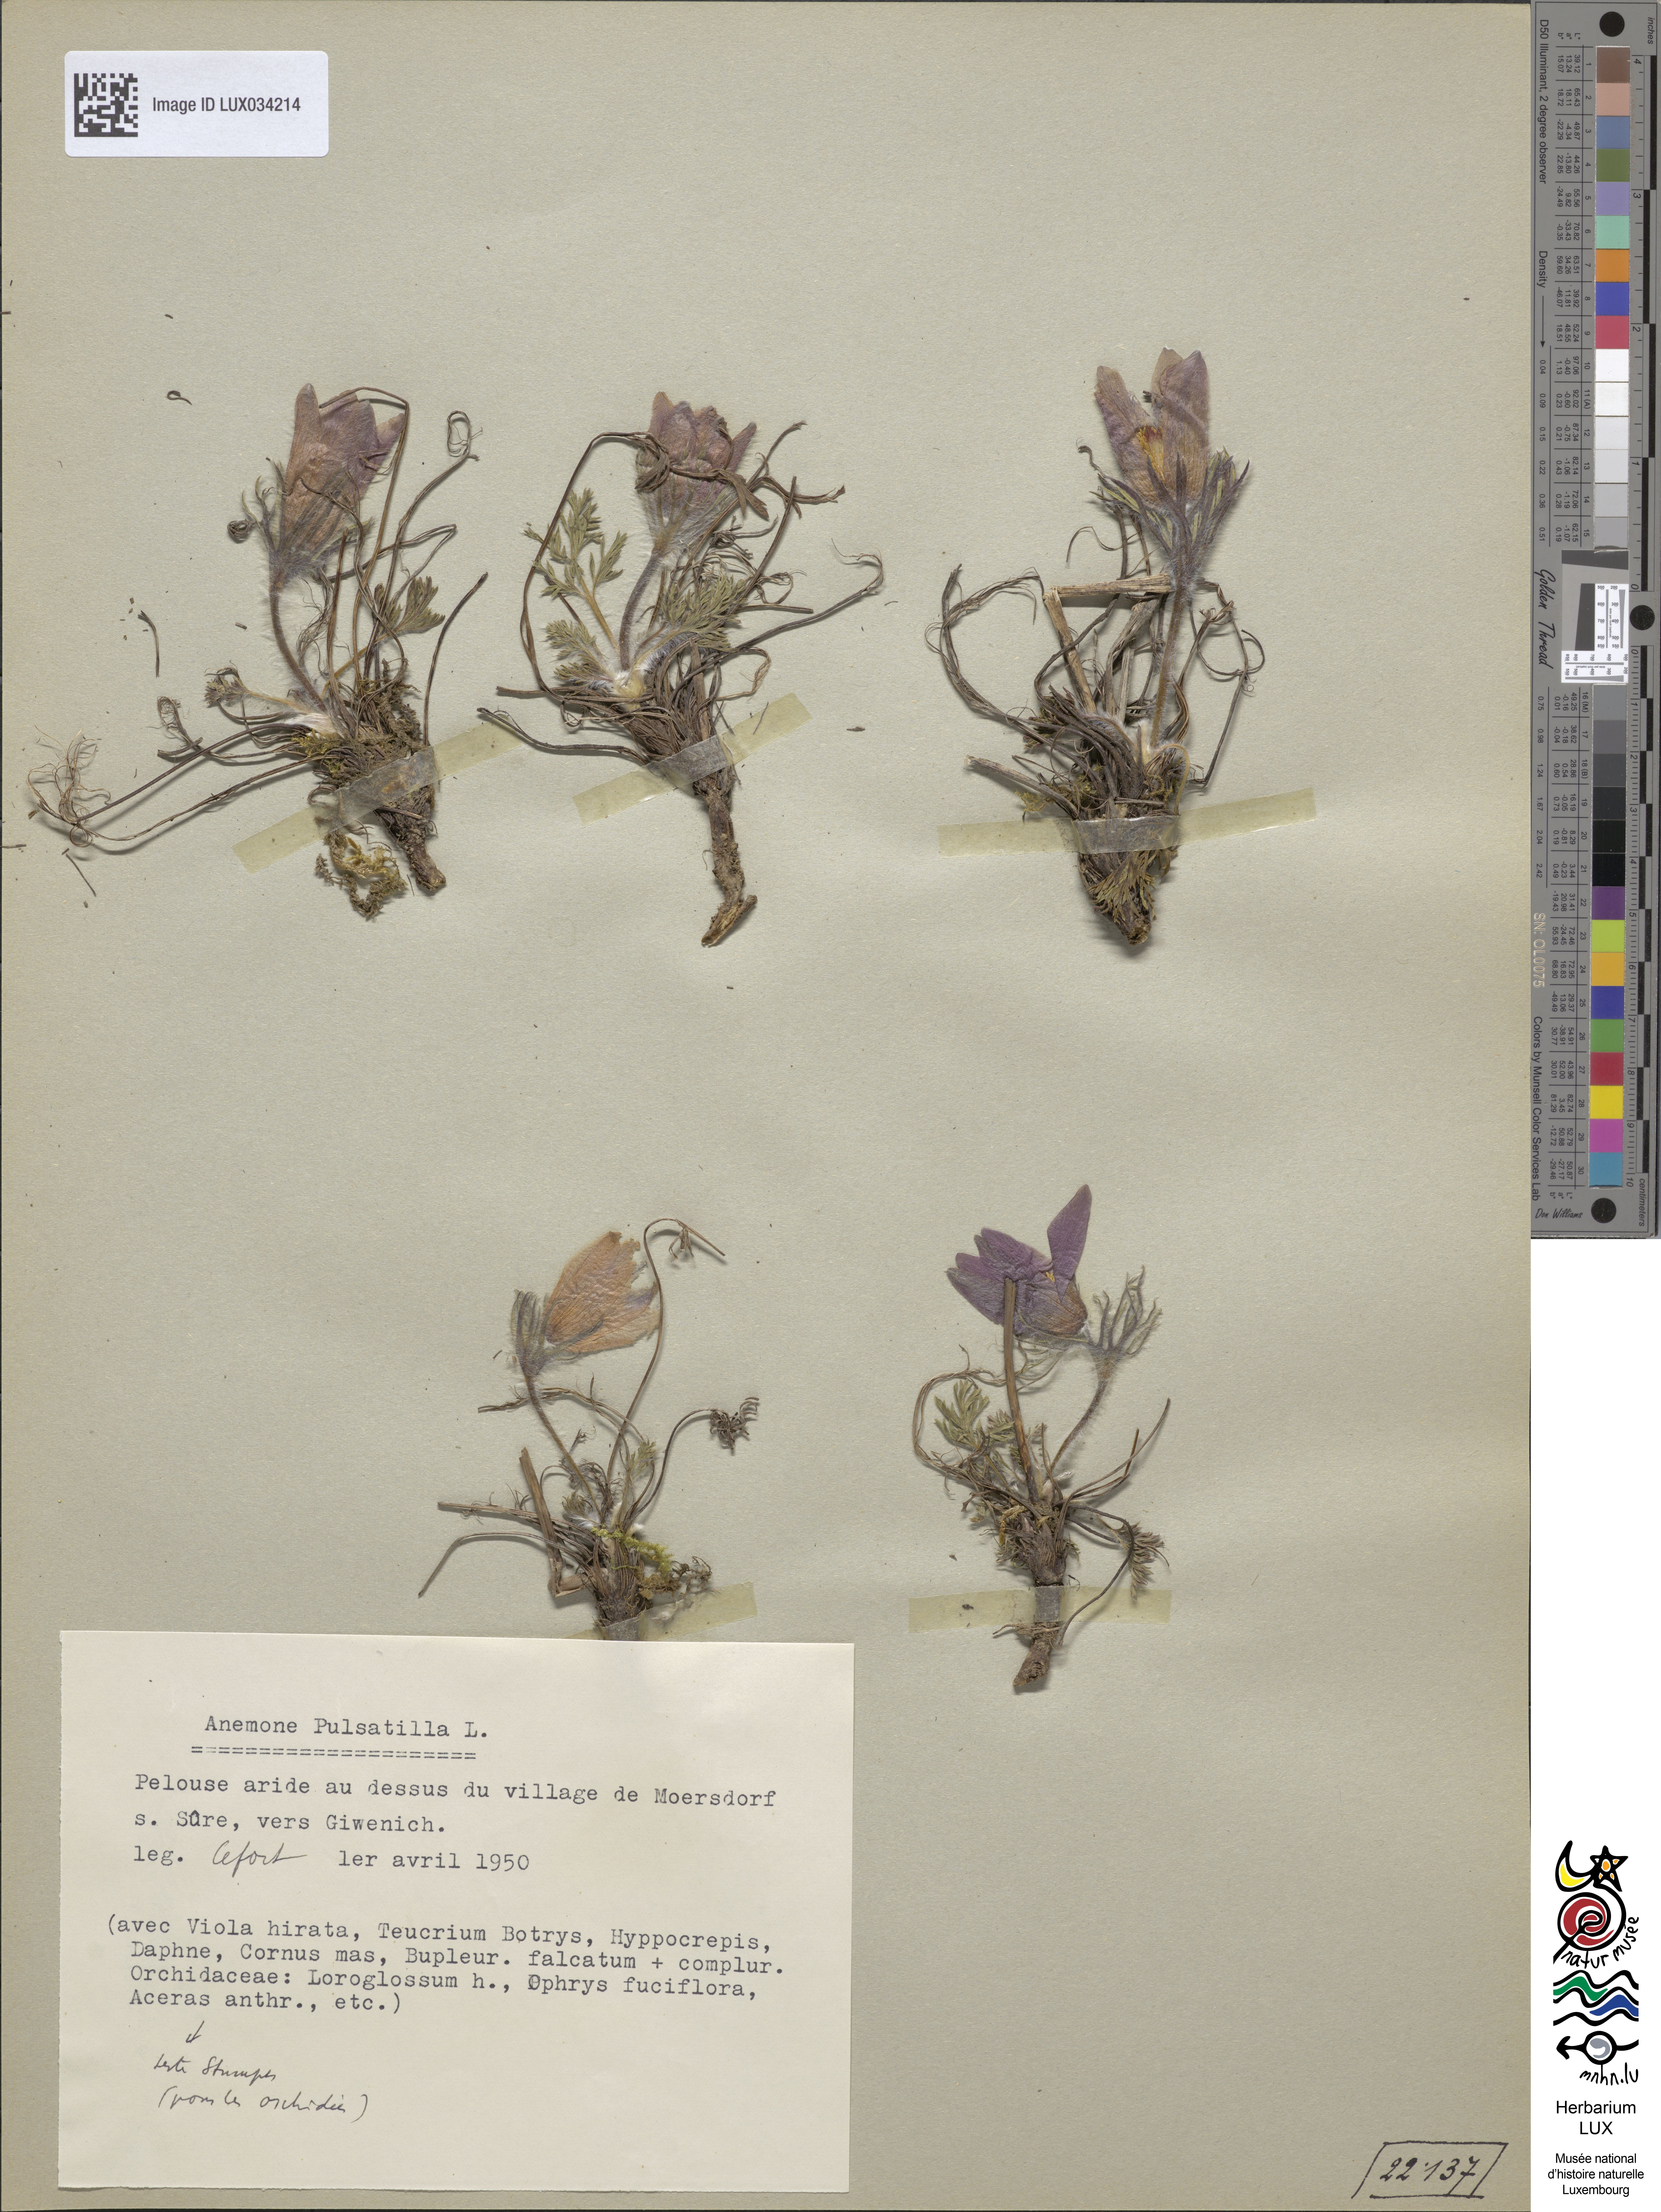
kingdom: Plantae
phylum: Tracheophyta
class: Magnoliopsida
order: Ranunculales
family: Ranunculaceae
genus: Pulsatilla
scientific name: Pulsatilla vulgaris
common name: Pasqueflower
